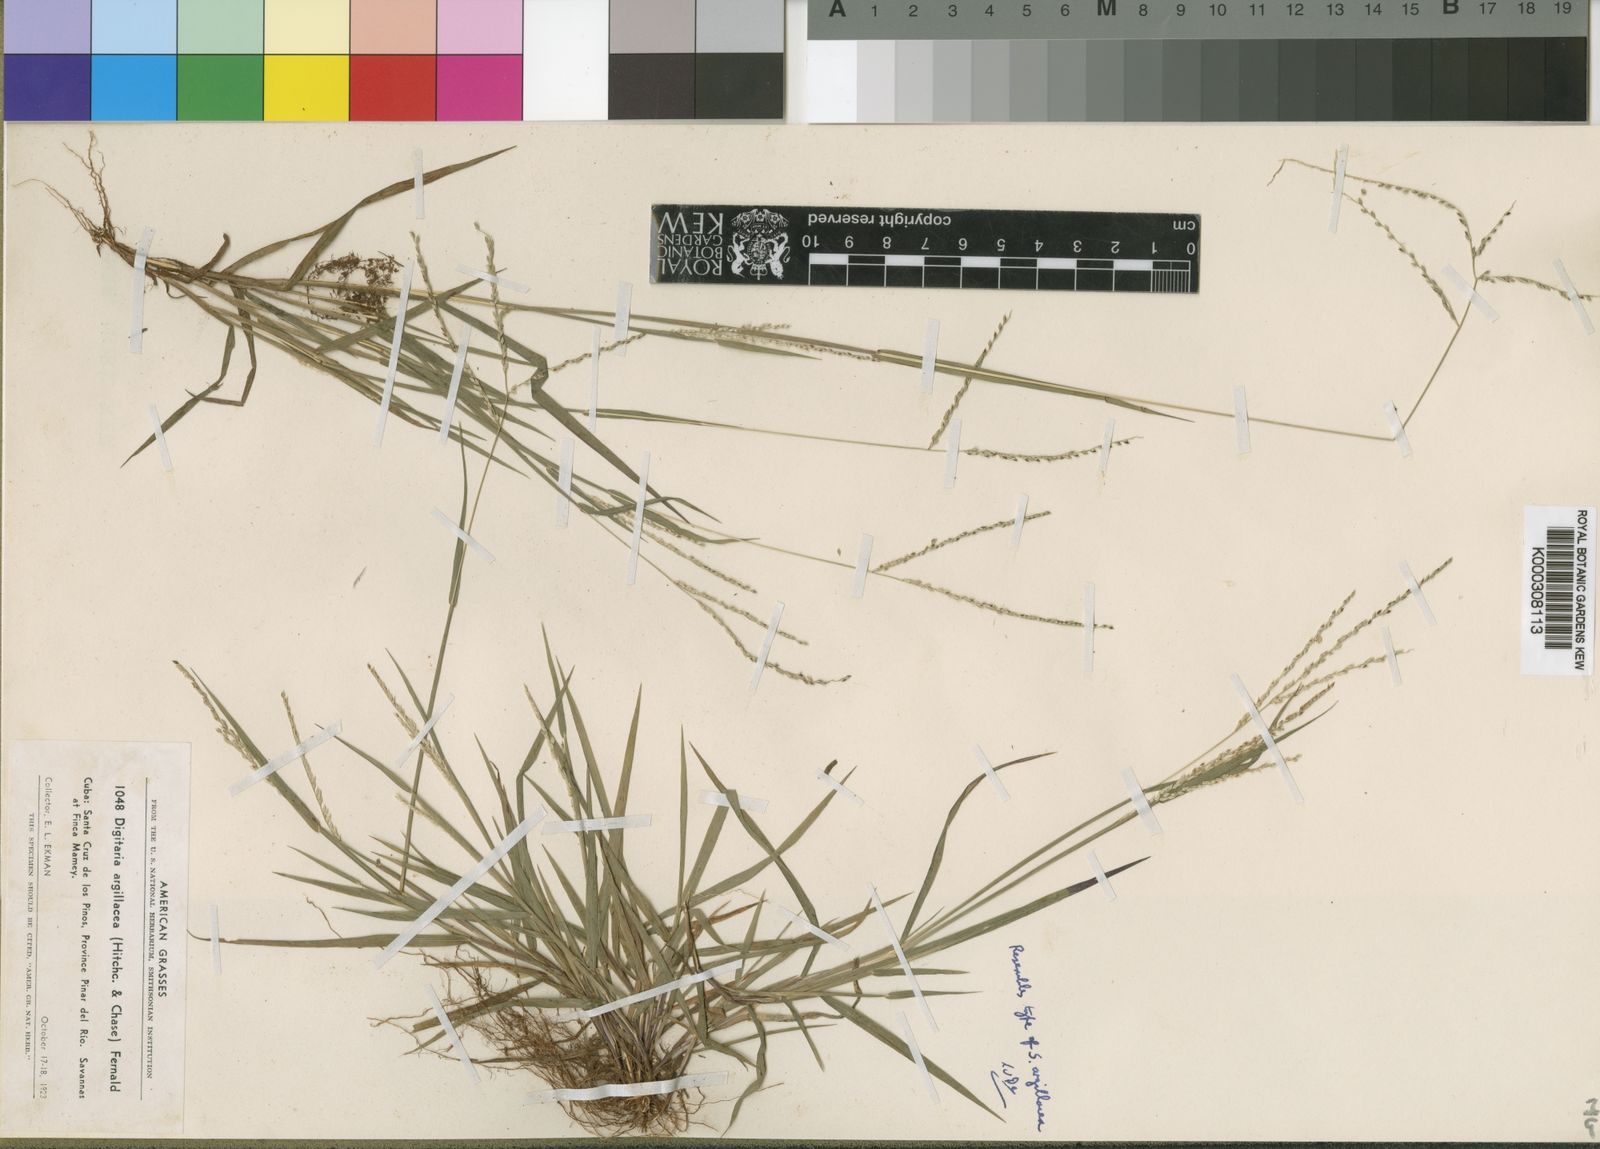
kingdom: Plantae
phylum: Tracheophyta
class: Liliopsida
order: Poales
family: Poaceae
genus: Digitaria
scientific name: Digitaria argillacea
